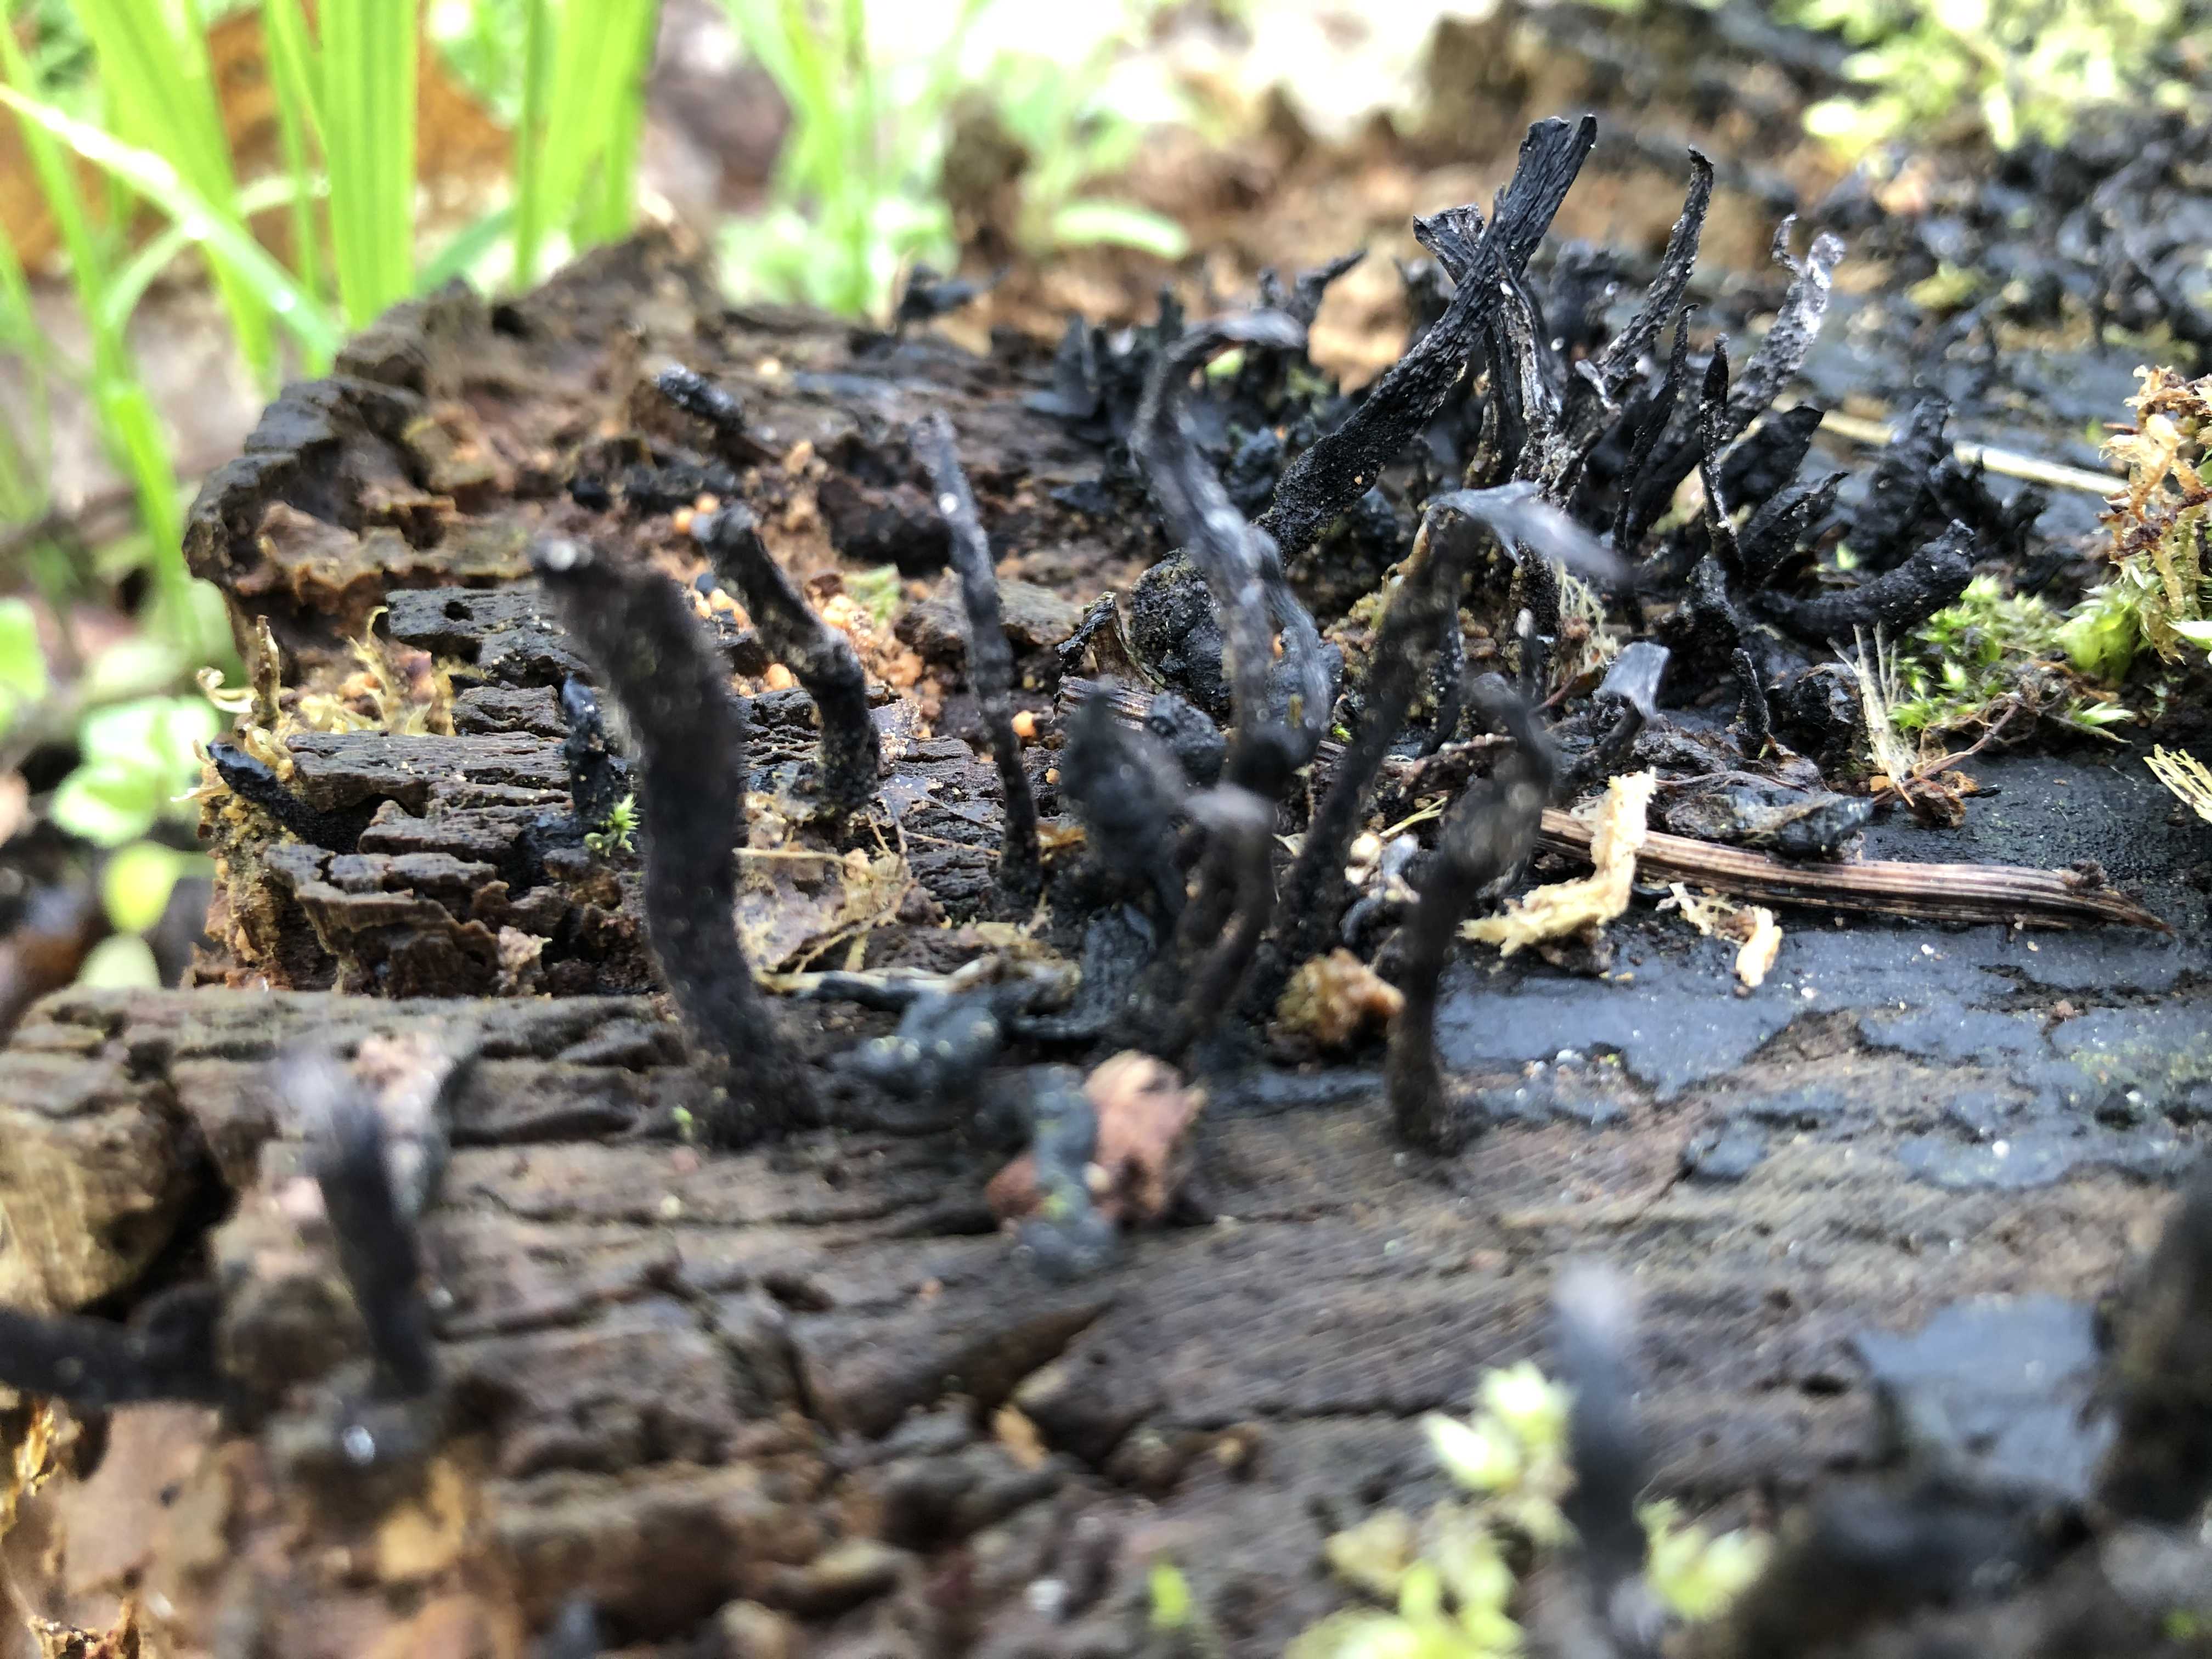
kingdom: Fungi
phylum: Ascomycota
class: Sordariomycetes
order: Xylariales
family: Xylariaceae
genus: Xylaria
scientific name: Xylaria hypoxylon
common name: grenet stødsvamp
